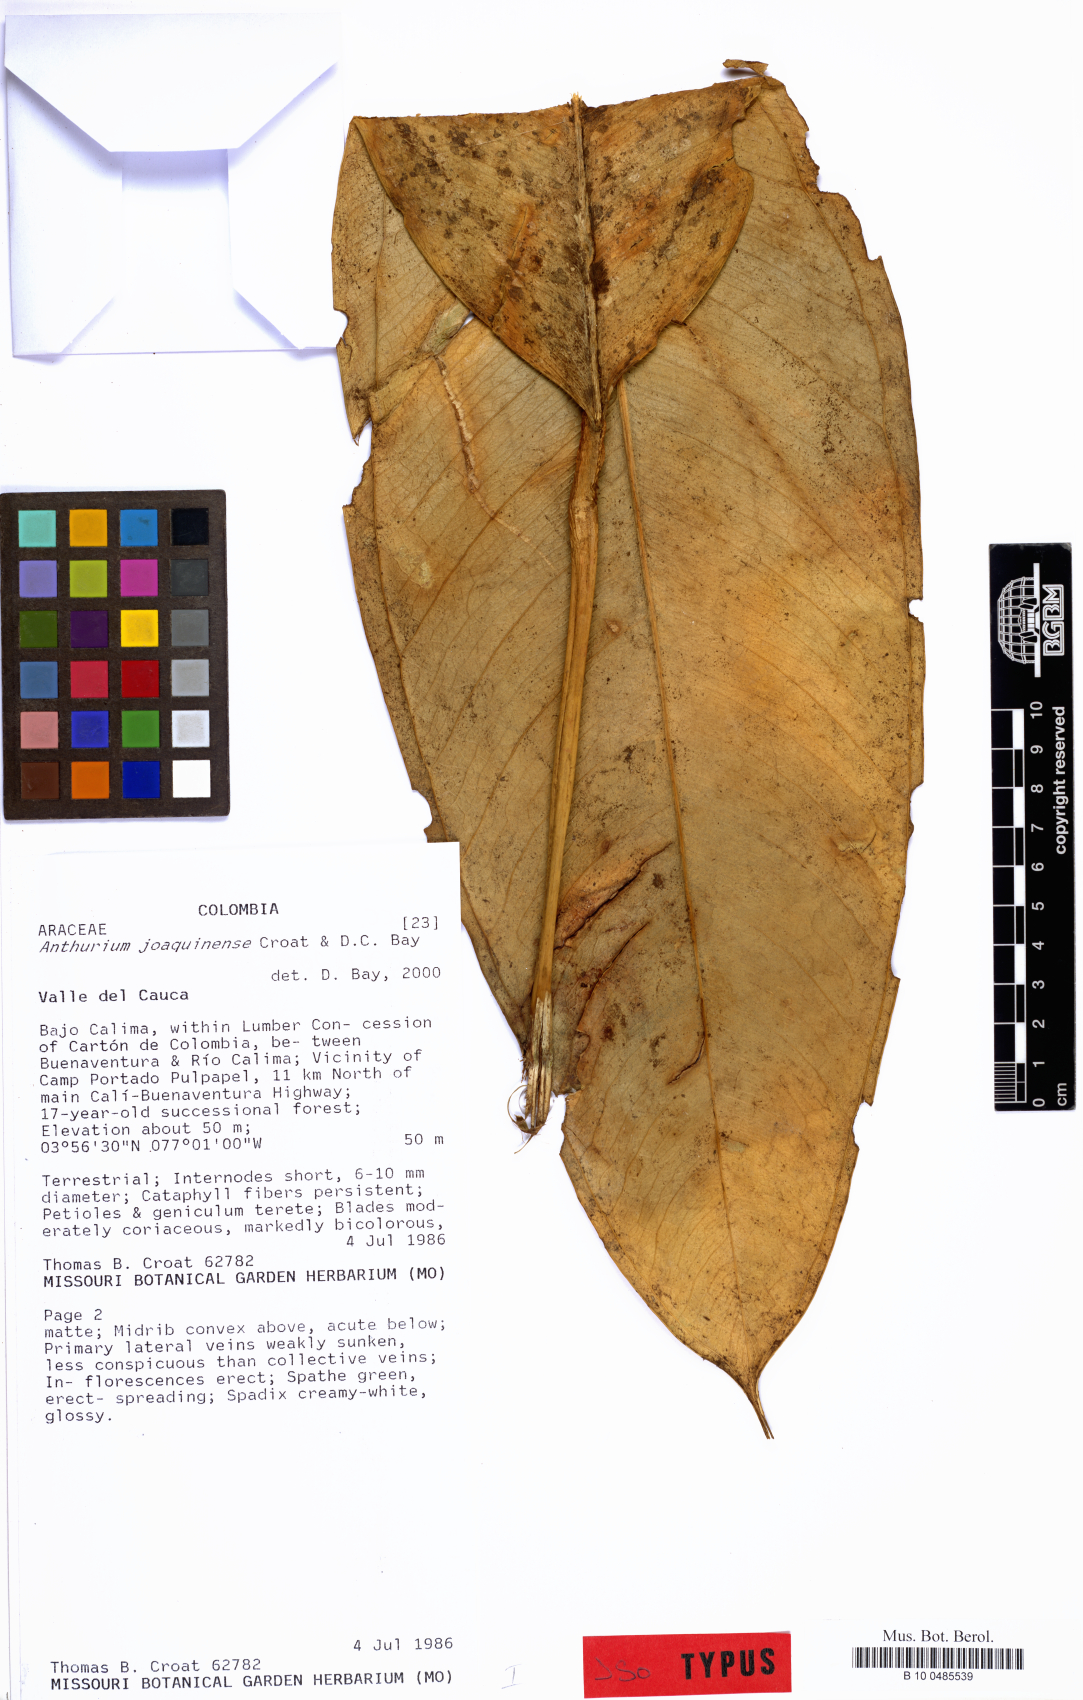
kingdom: Plantae
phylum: Tracheophyta
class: Liliopsida
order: Alismatales
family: Araceae
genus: Anthurium
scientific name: Anthurium joaquinense
